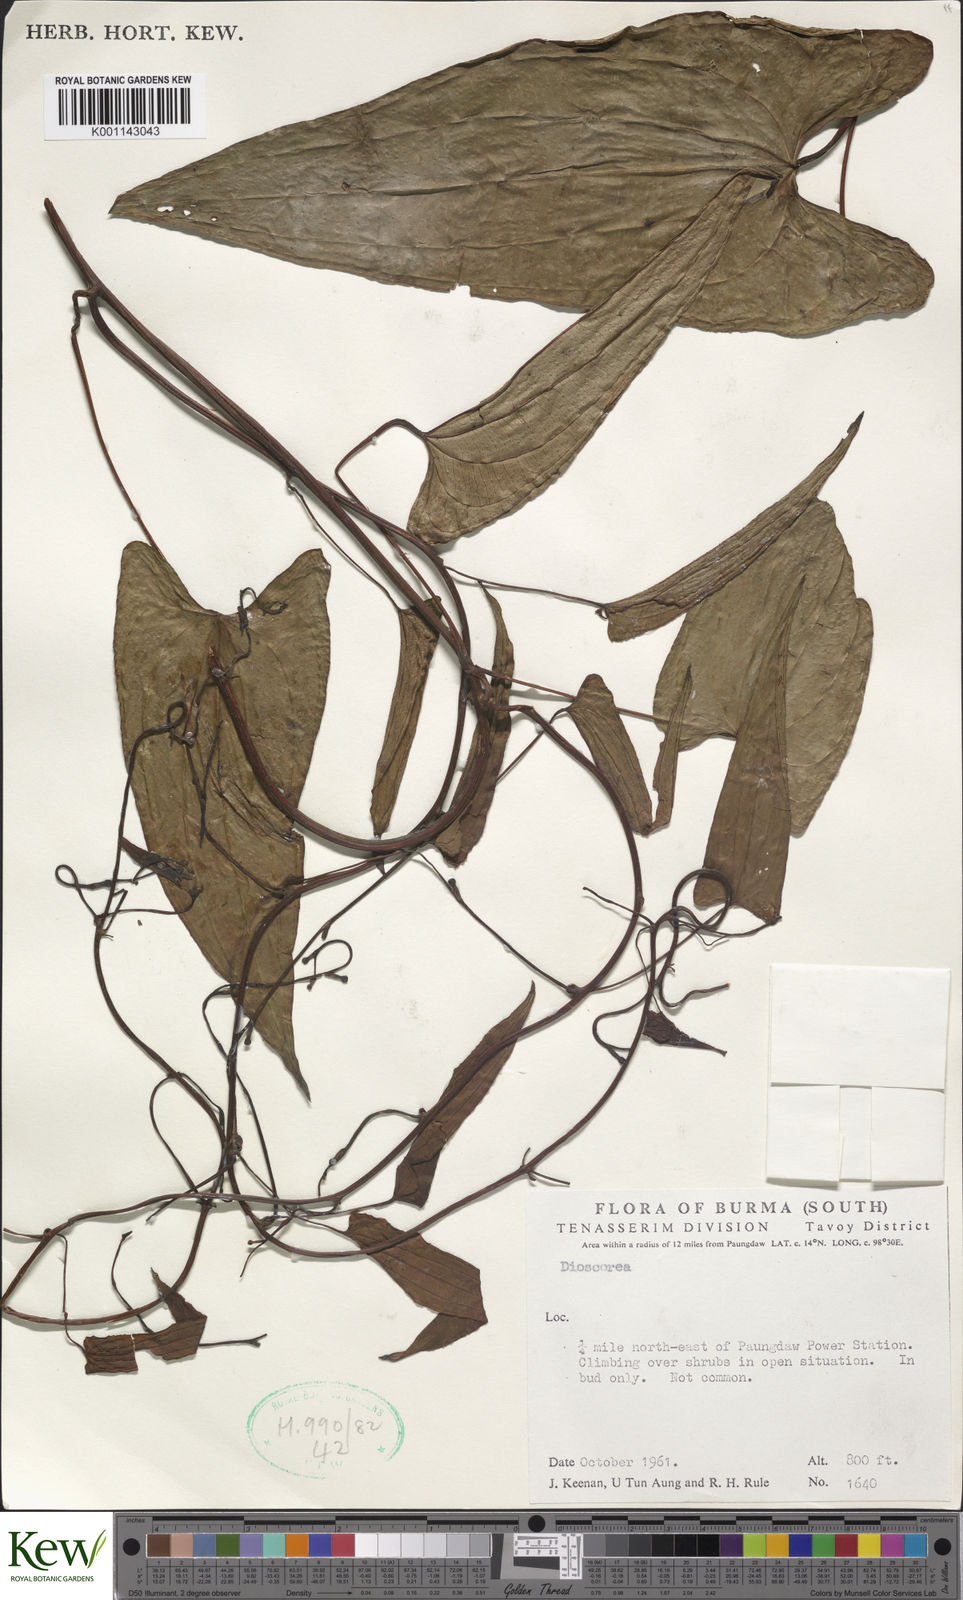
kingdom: Plantae
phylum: Tracheophyta
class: Liliopsida
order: Dioscoreales
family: Dioscoreaceae
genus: Dioscorea
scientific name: Dioscorea
